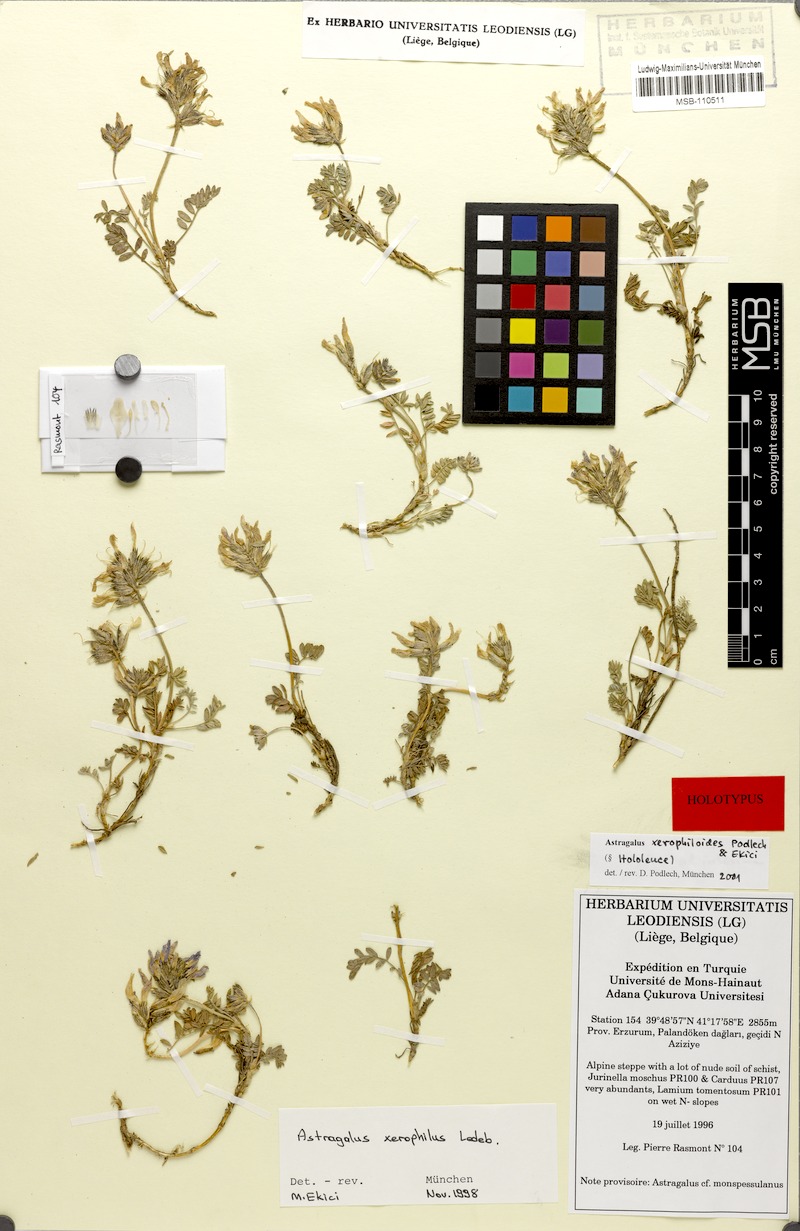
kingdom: Plantae
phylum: Tracheophyta
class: Magnoliopsida
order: Fabales
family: Fabaceae
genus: Astragalus
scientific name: Astragalus xerophiloides
